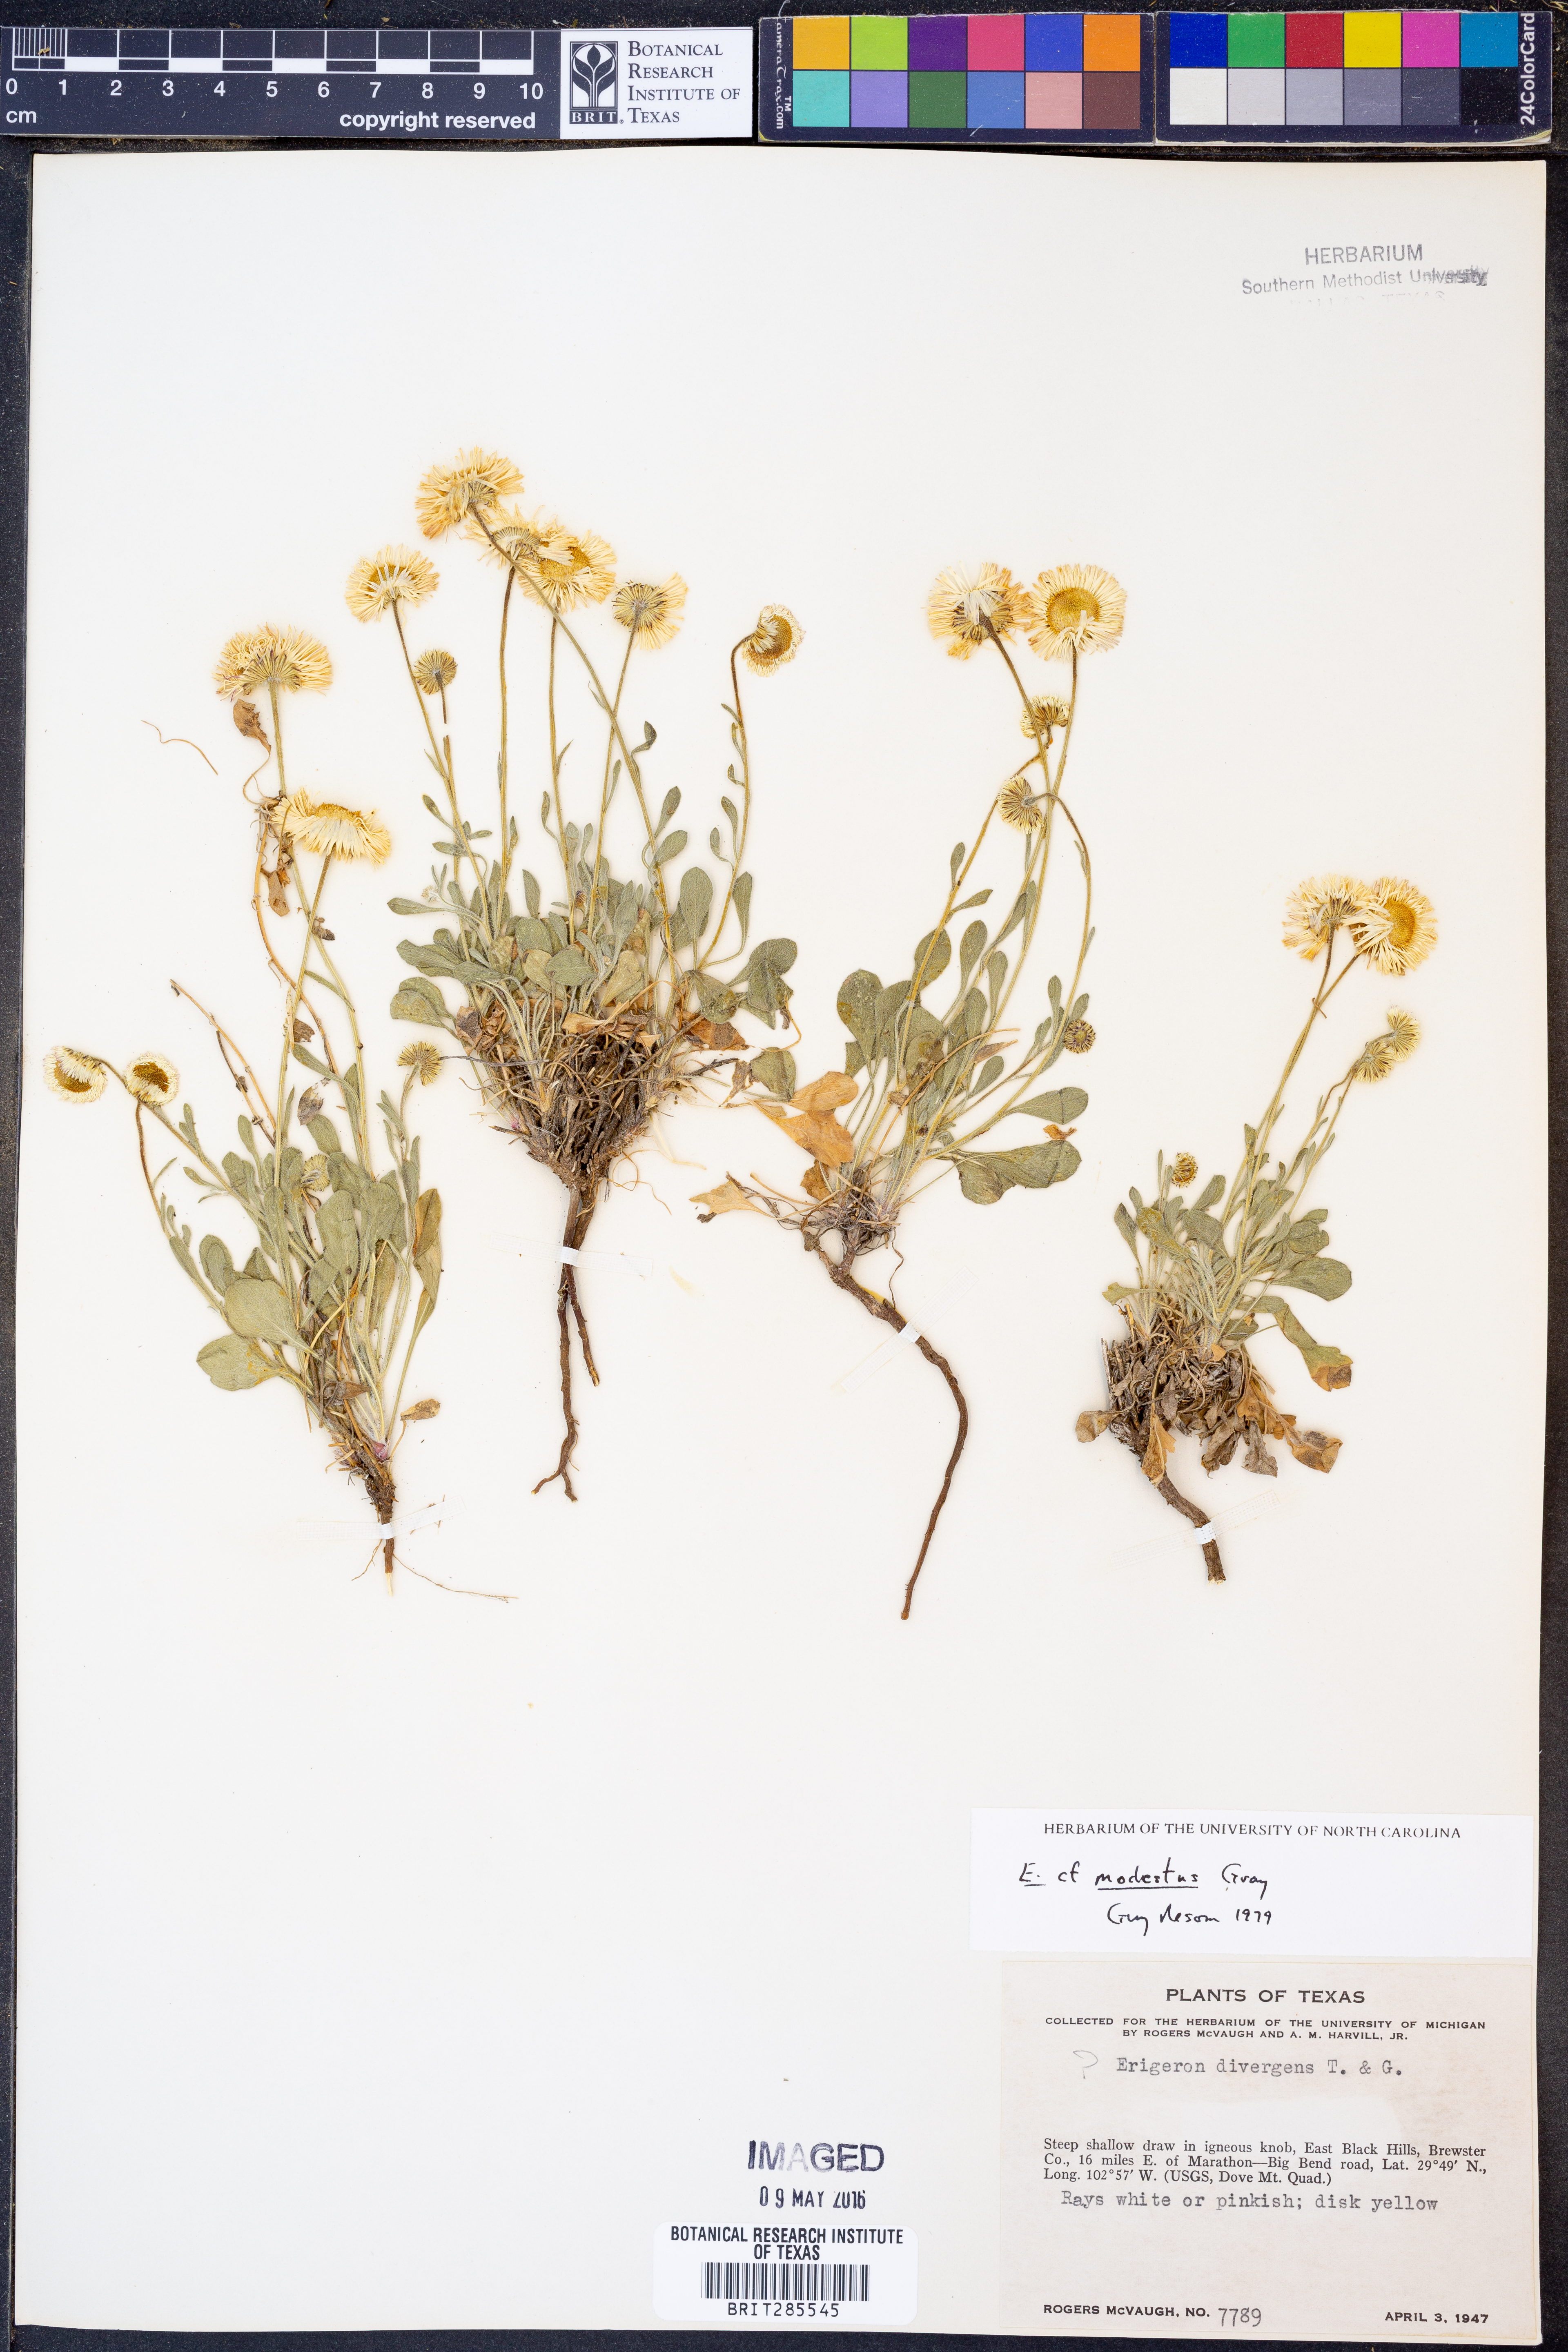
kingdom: Plantae
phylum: Tracheophyta
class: Magnoliopsida
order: Asterales
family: Asteraceae
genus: Erigeron
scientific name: Erigeron modestus
